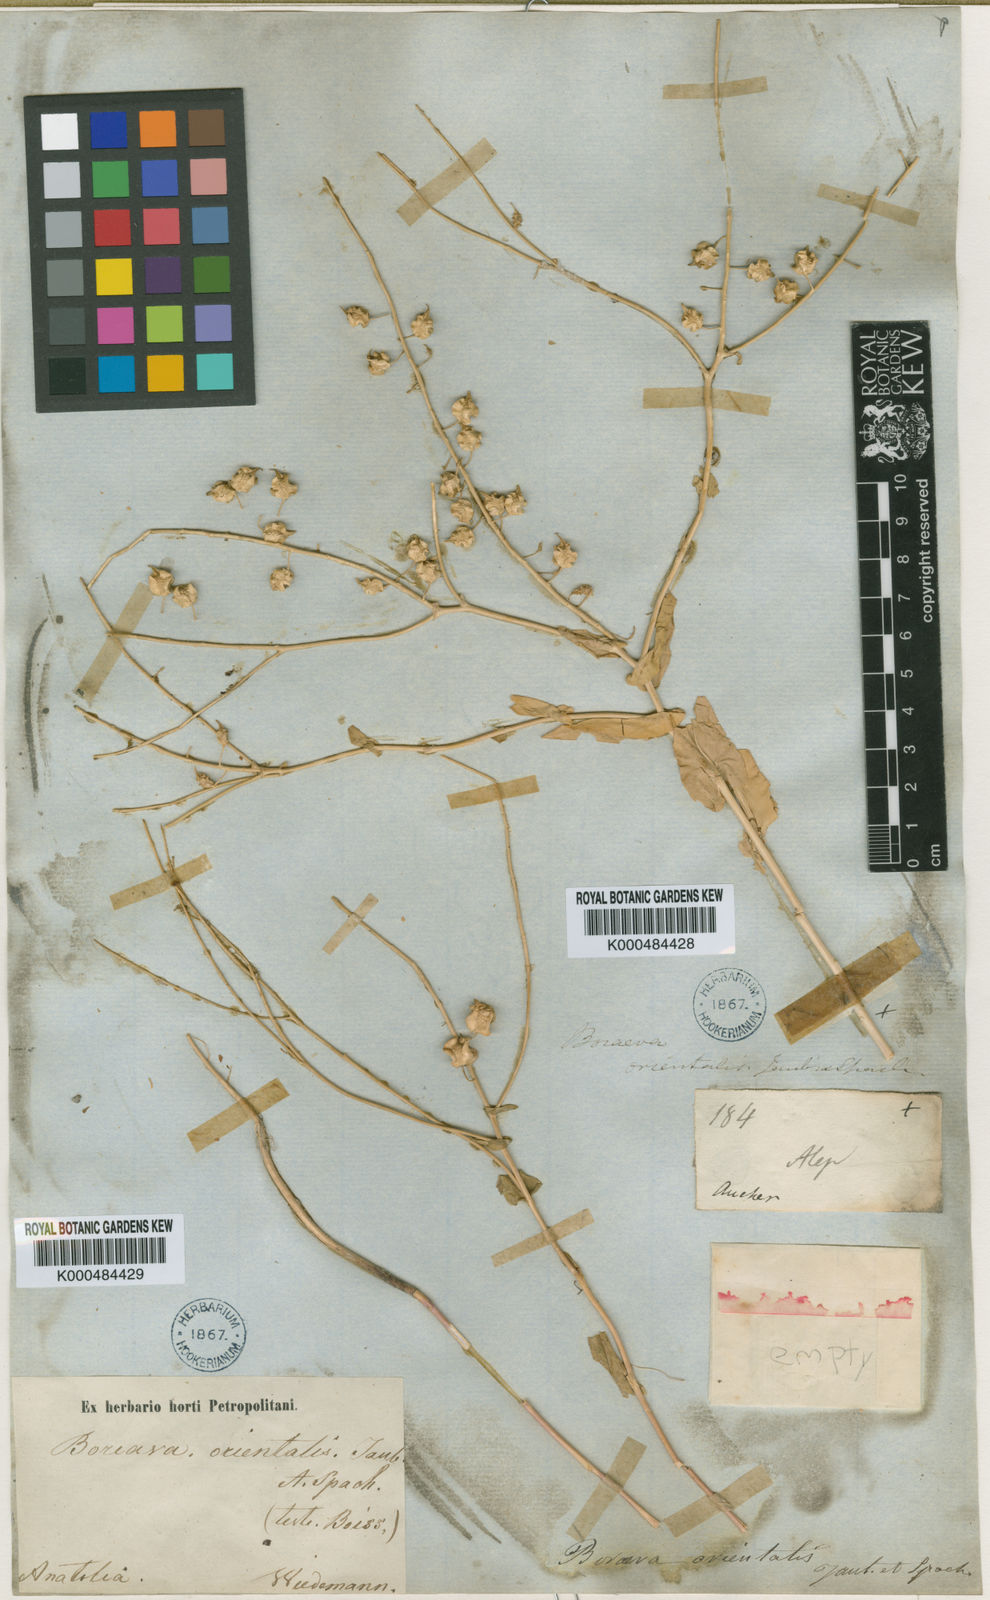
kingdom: Plantae
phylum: Tracheophyta
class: Magnoliopsida
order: Brassicales
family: Brassicaceae
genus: Isatis
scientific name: Isatis quadrialata
